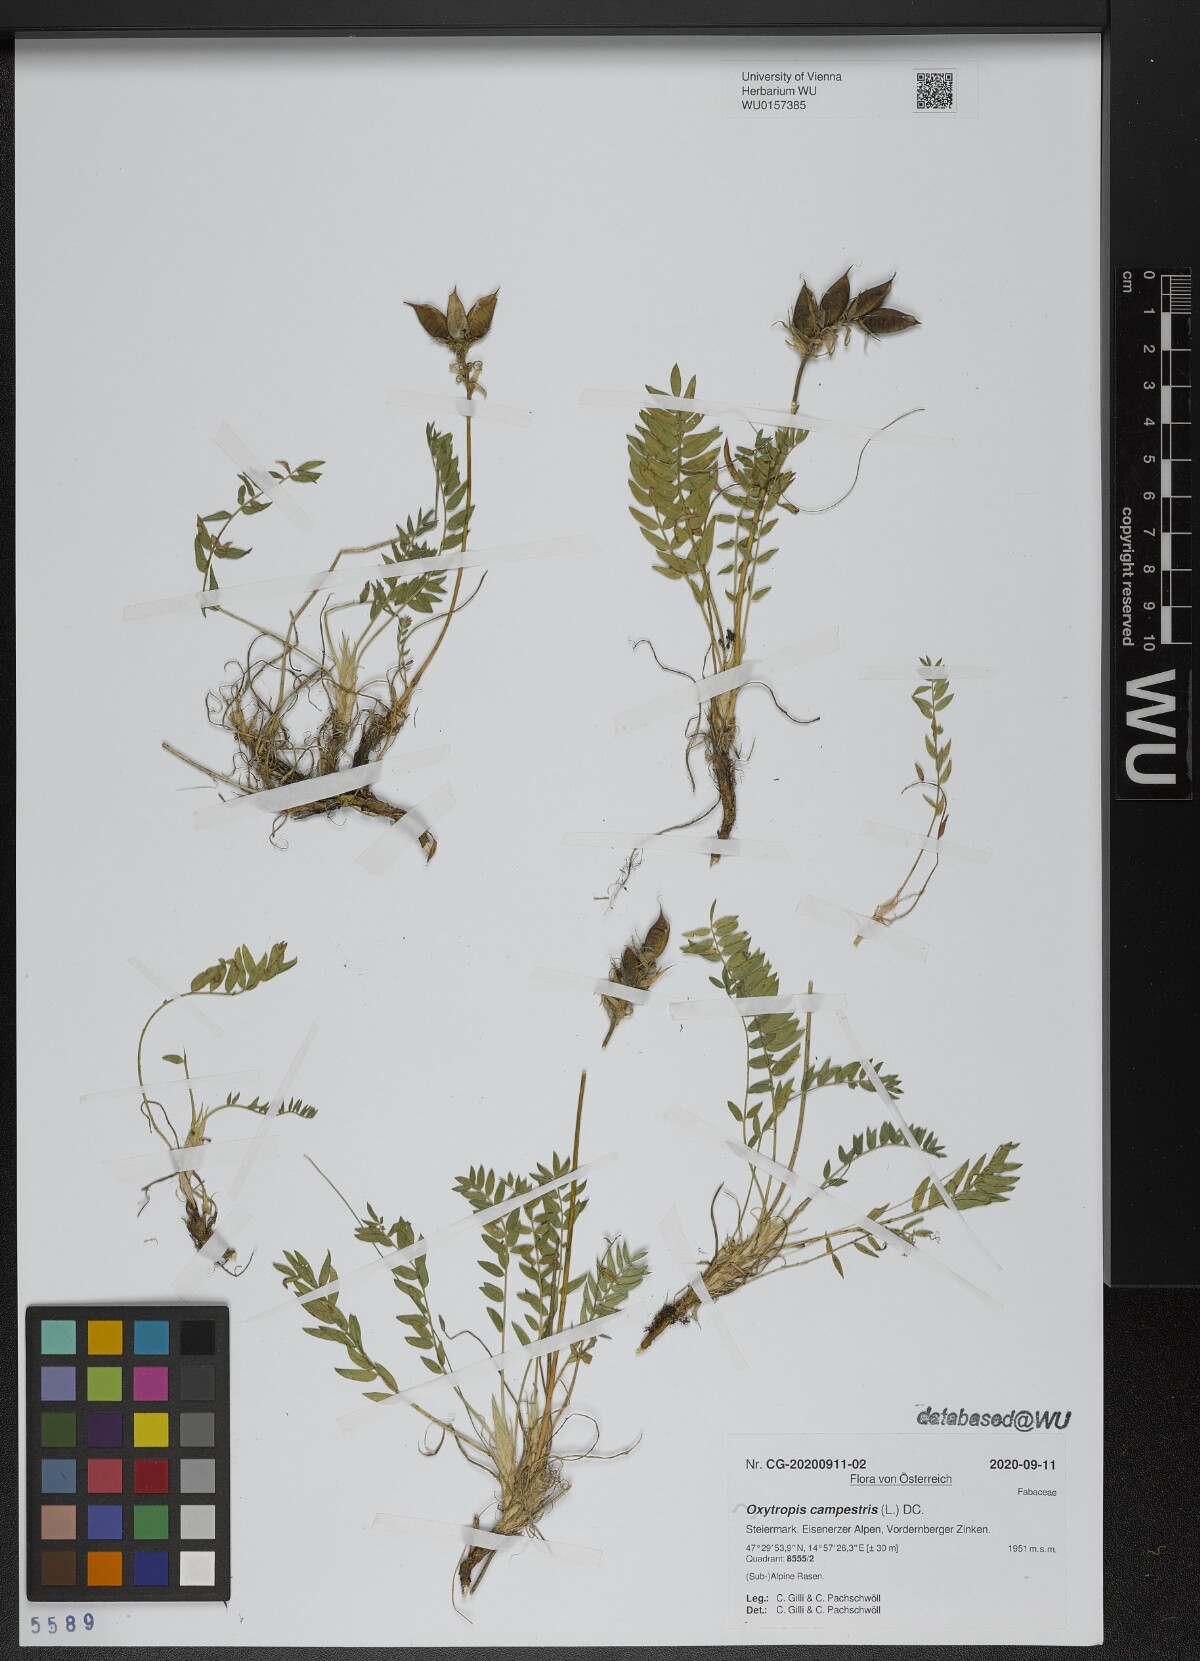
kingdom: Plantae
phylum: Tracheophyta
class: Magnoliopsida
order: Fabales
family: Fabaceae
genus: Oxytropis
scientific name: Oxytropis campestris
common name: Field locoweed
